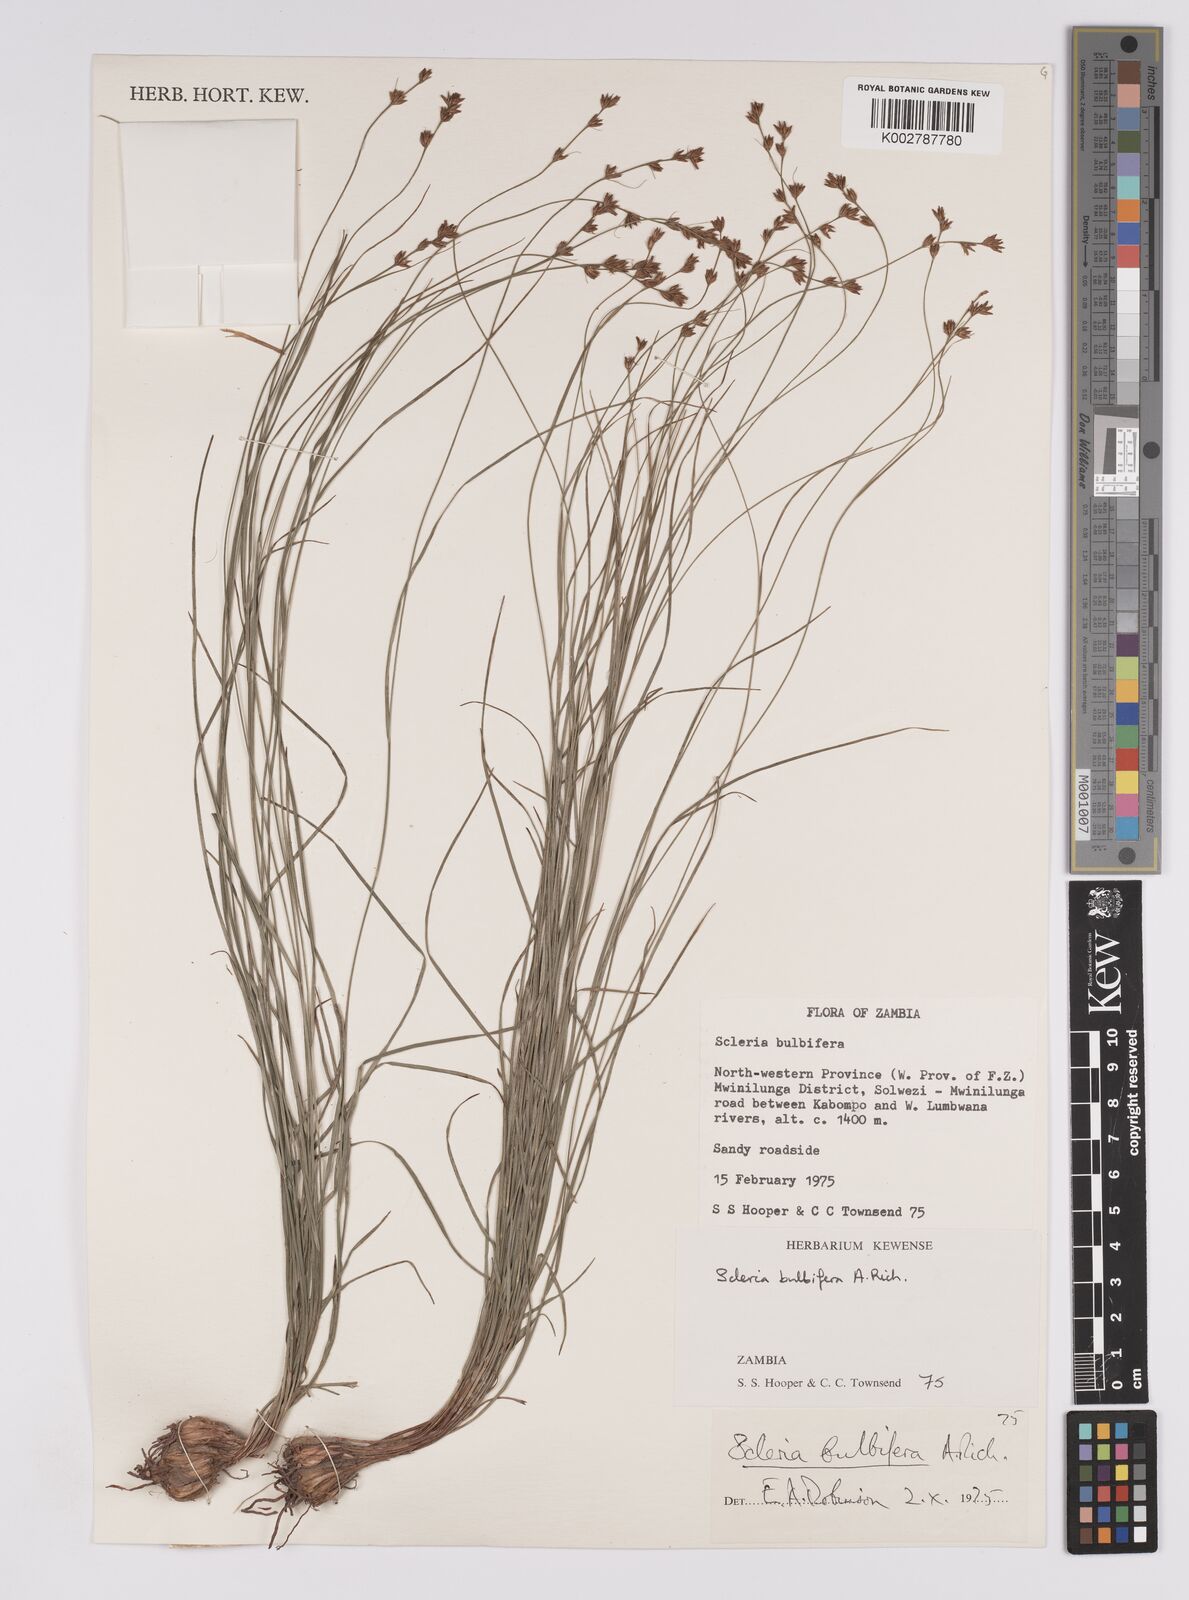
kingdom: Plantae
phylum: Tracheophyta
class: Liliopsida
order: Poales
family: Cyperaceae
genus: Scleria
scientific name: Scleria bulbifera
